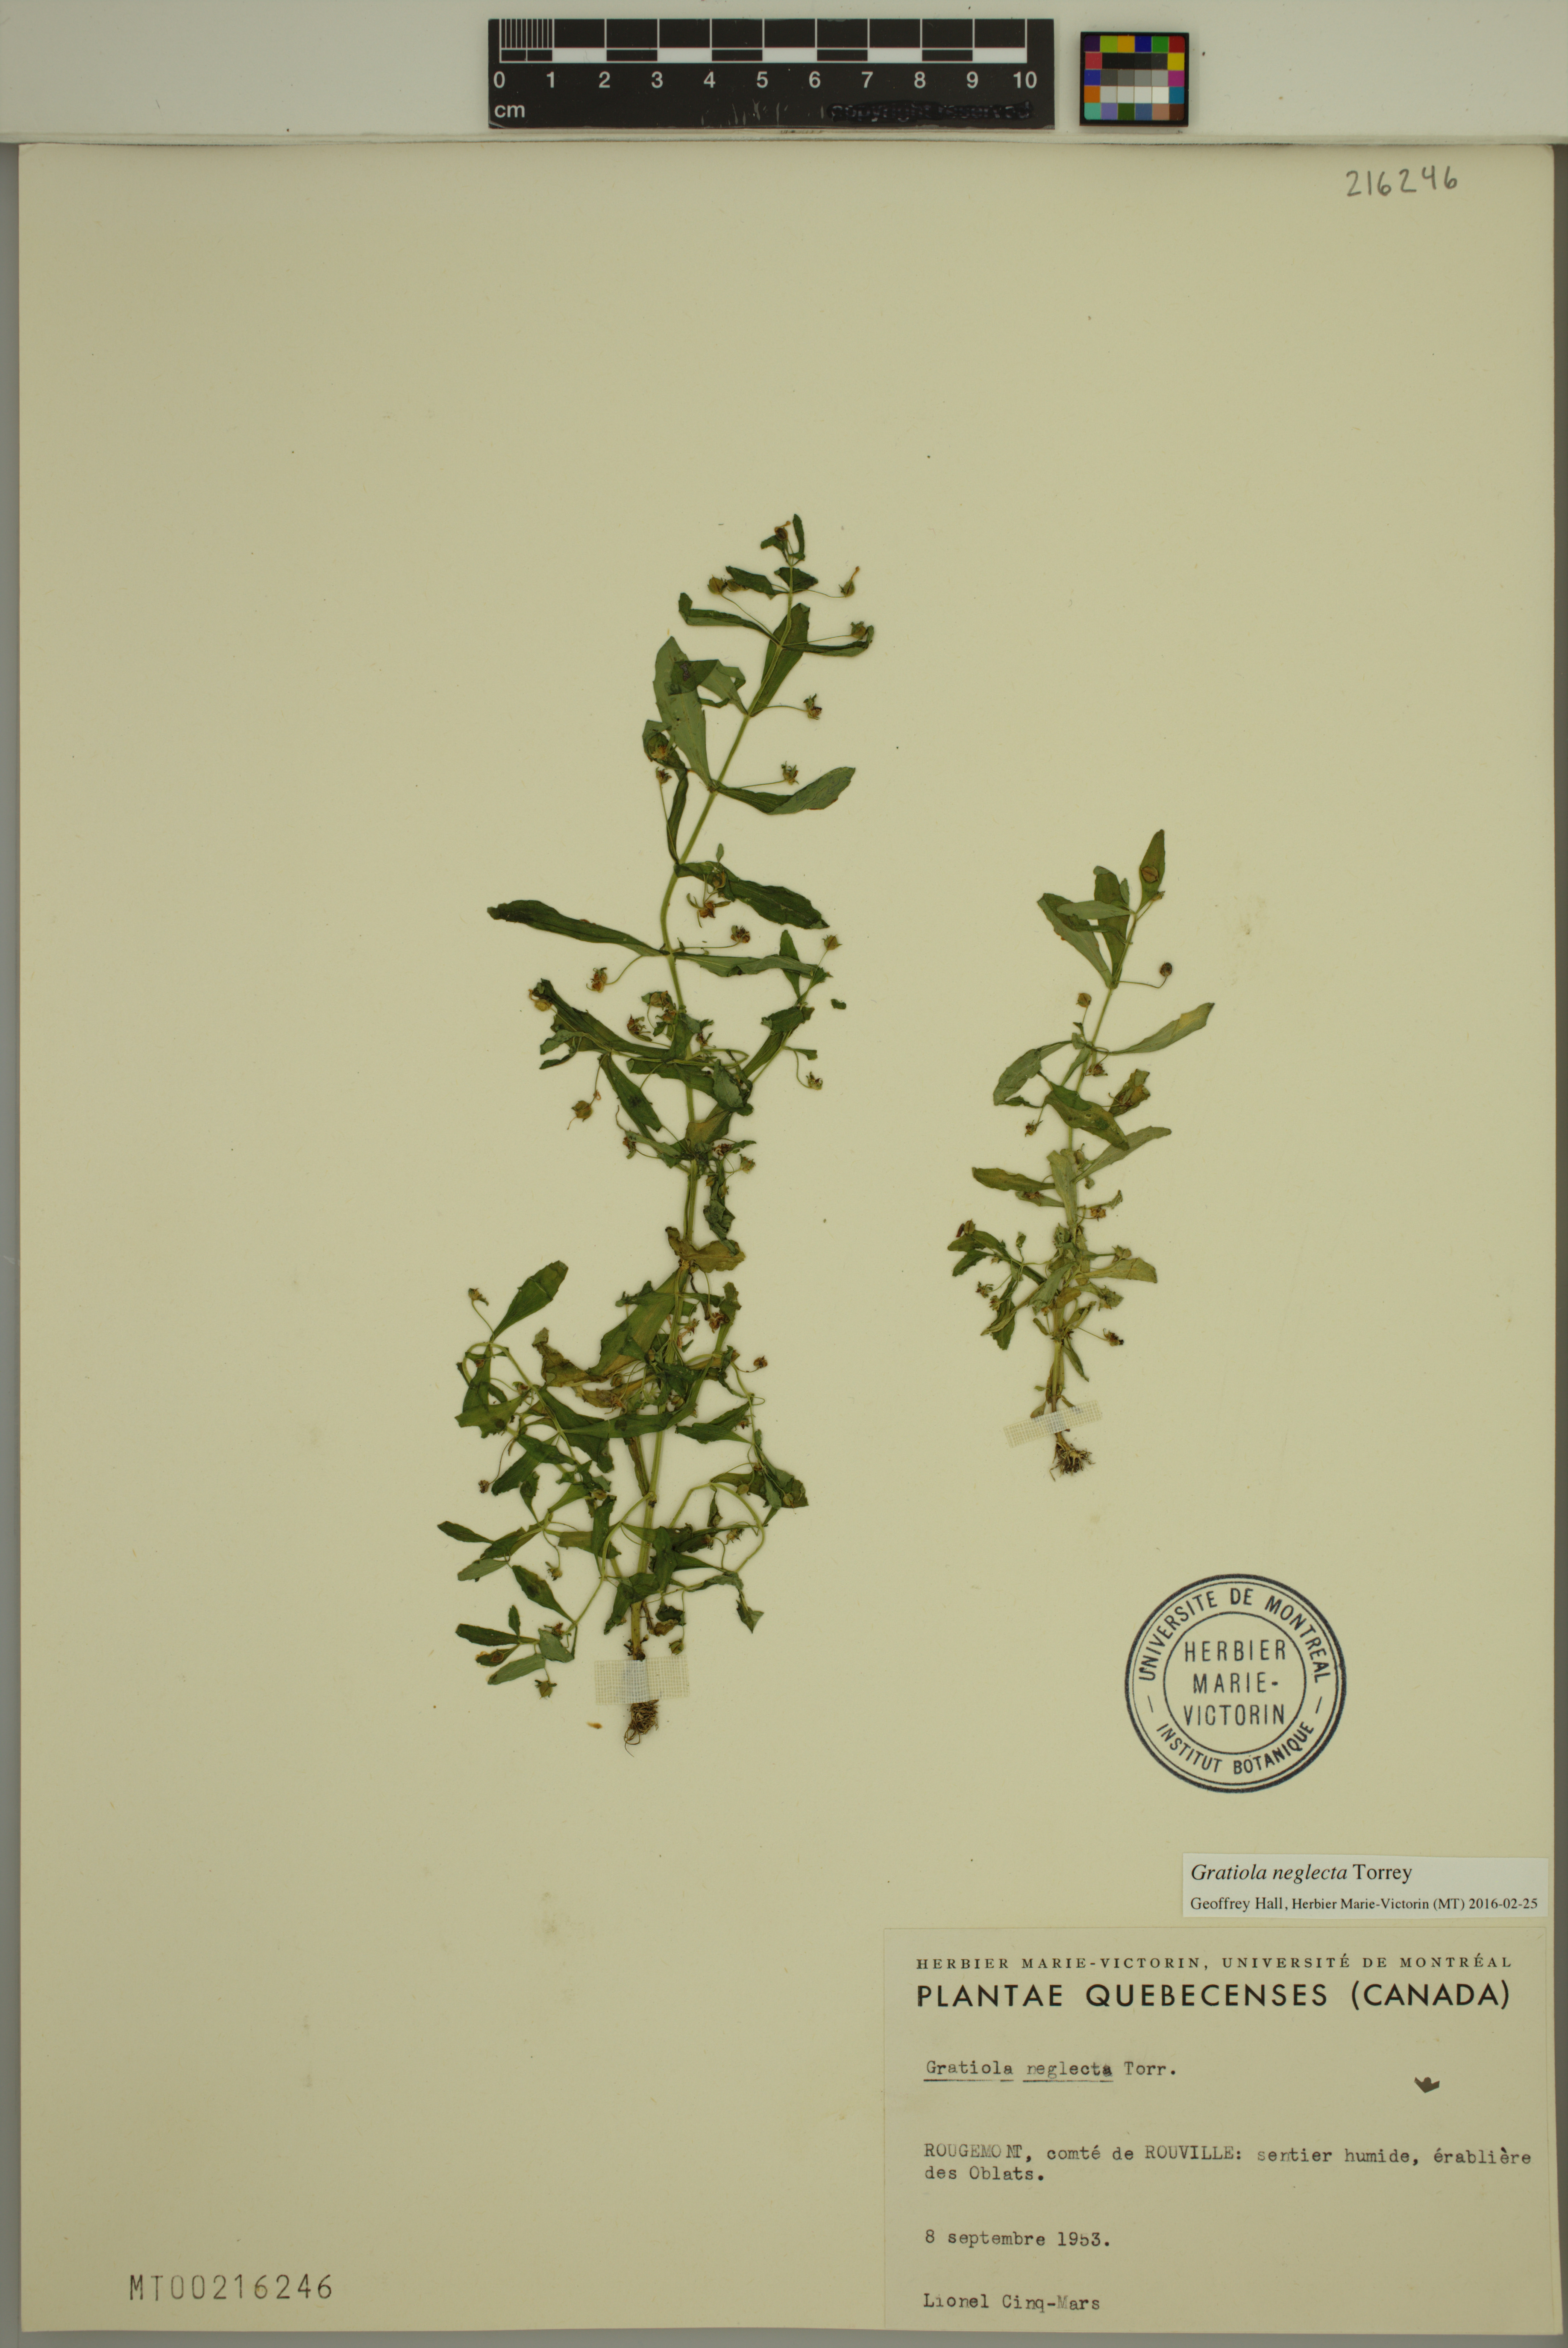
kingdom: Plantae
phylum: Tracheophyta
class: Magnoliopsida
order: Lamiales
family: Plantaginaceae
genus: Gratiola
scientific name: Gratiola neglecta
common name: American hedge-hyssop
